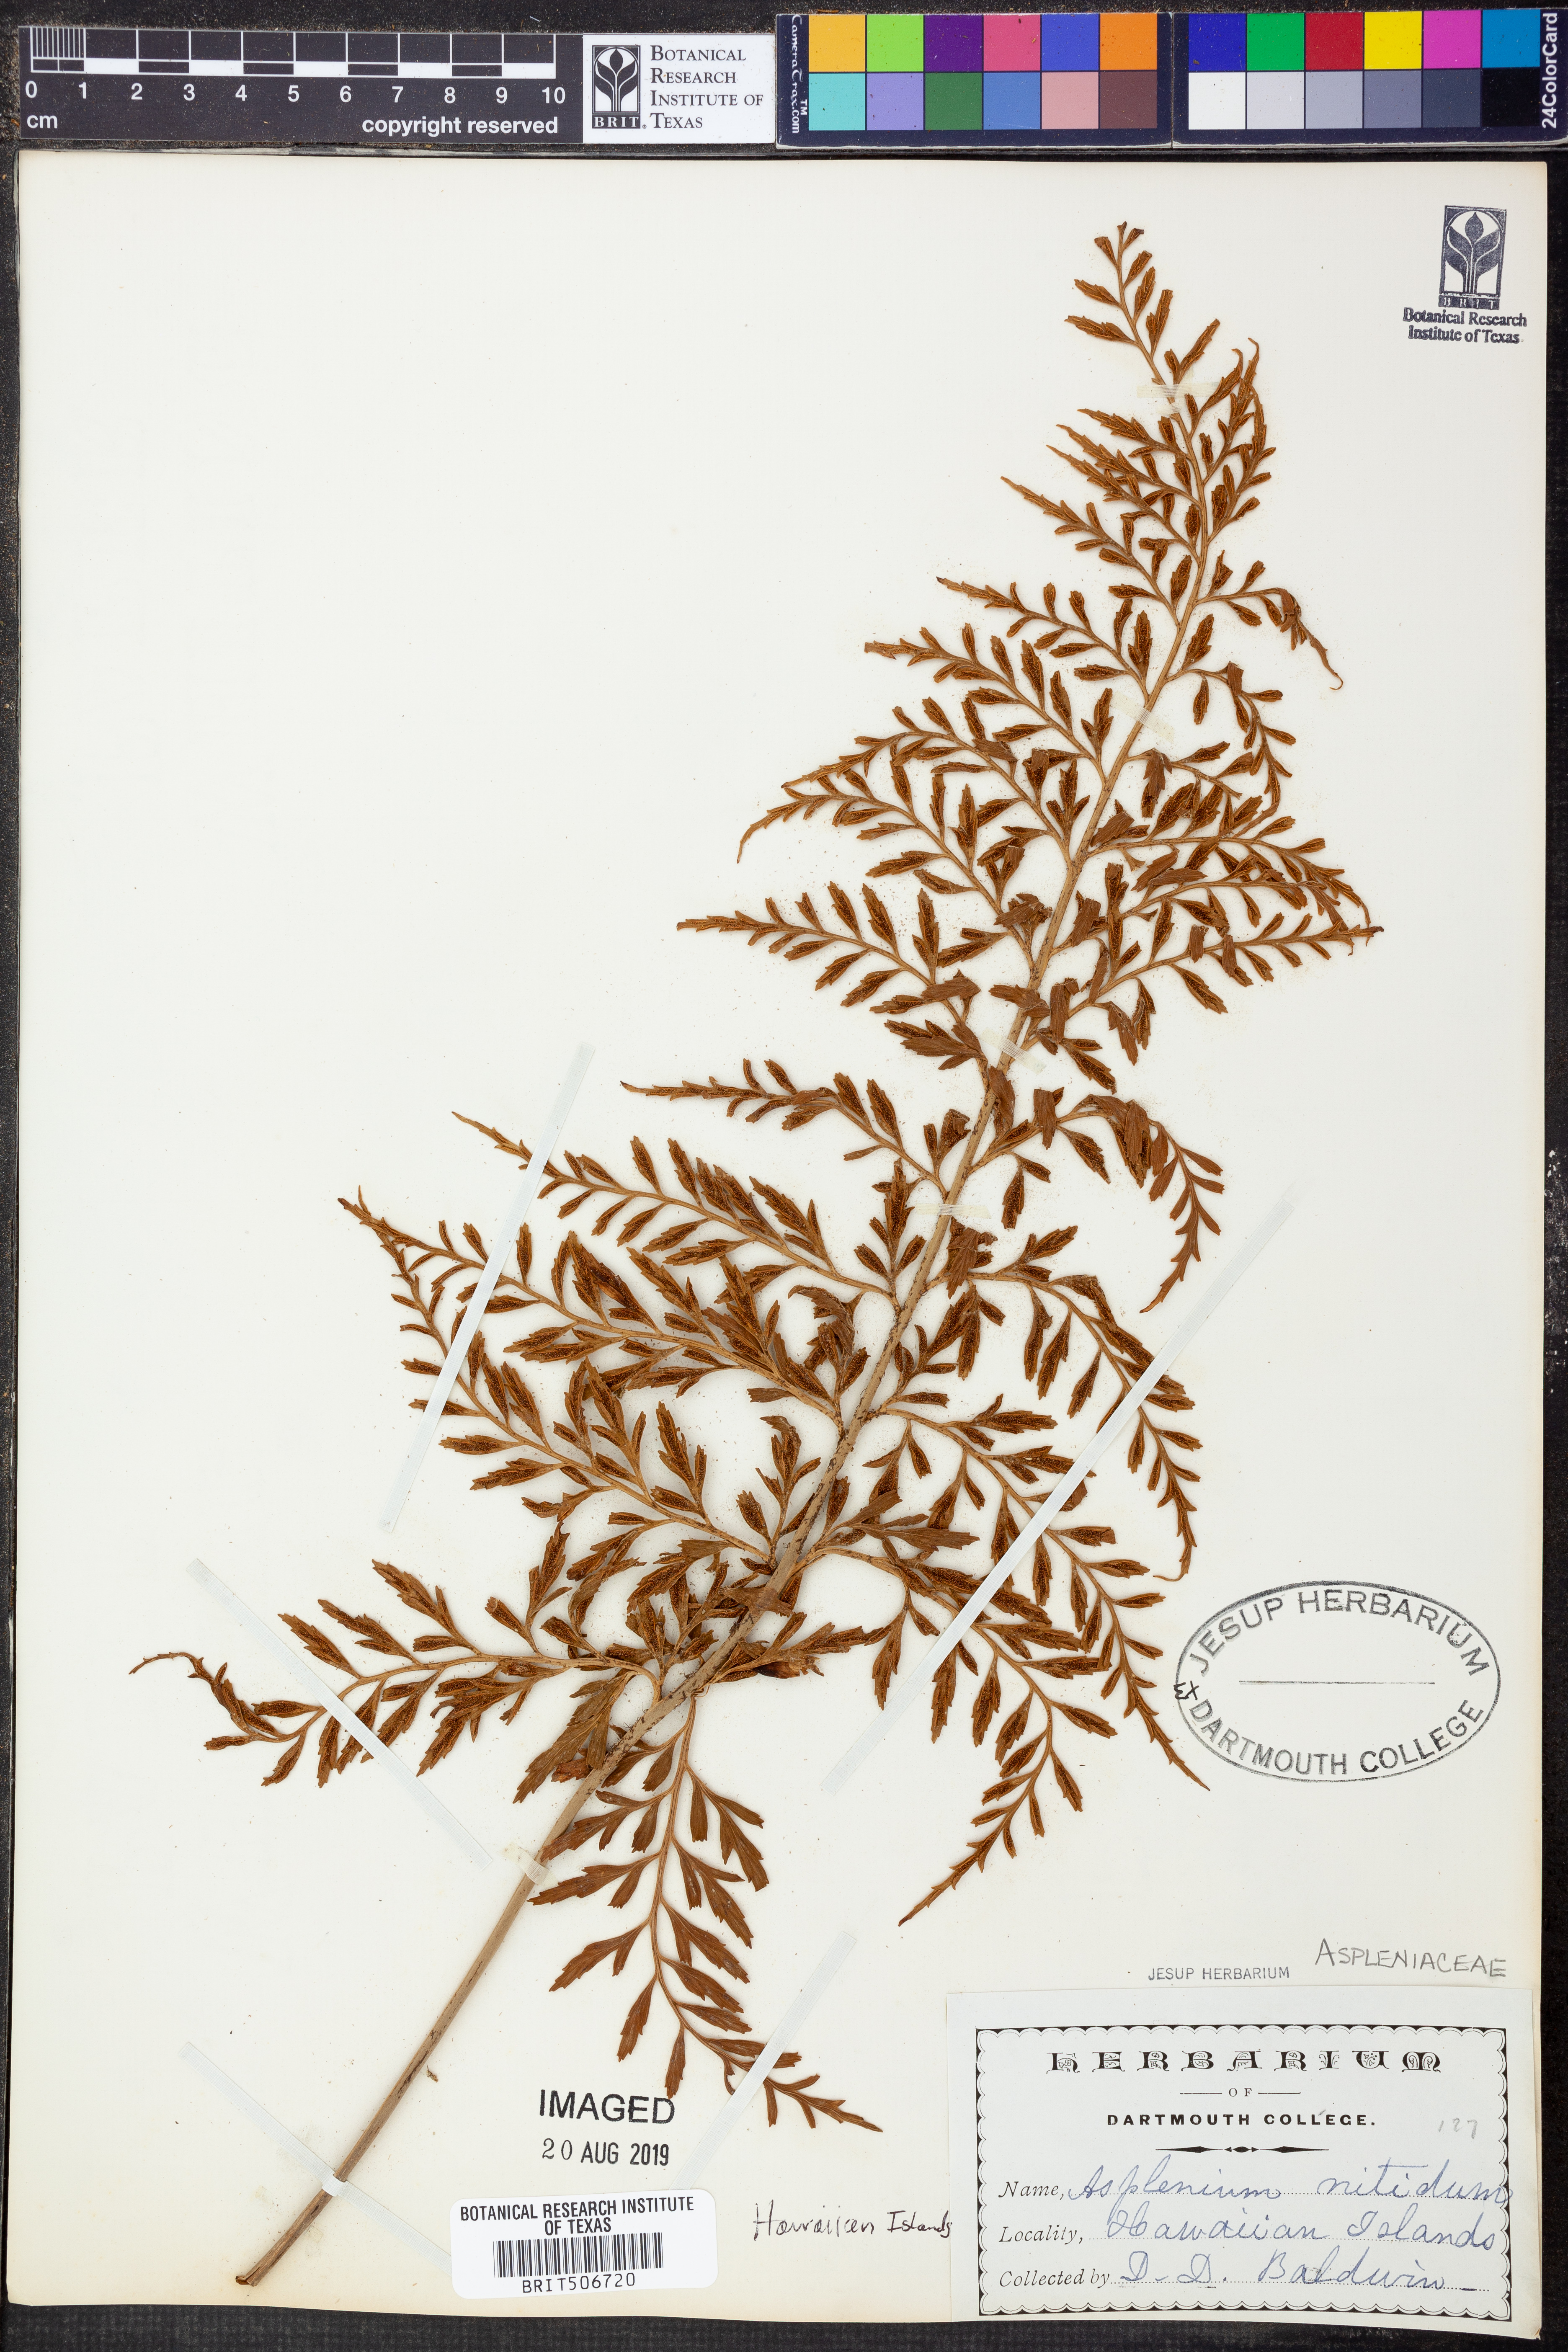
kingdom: Plantae
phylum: Tracheophyta
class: Polypodiopsida
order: Polypodiales
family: Aspleniaceae
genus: Asplenium
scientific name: Asplenium nitidum
